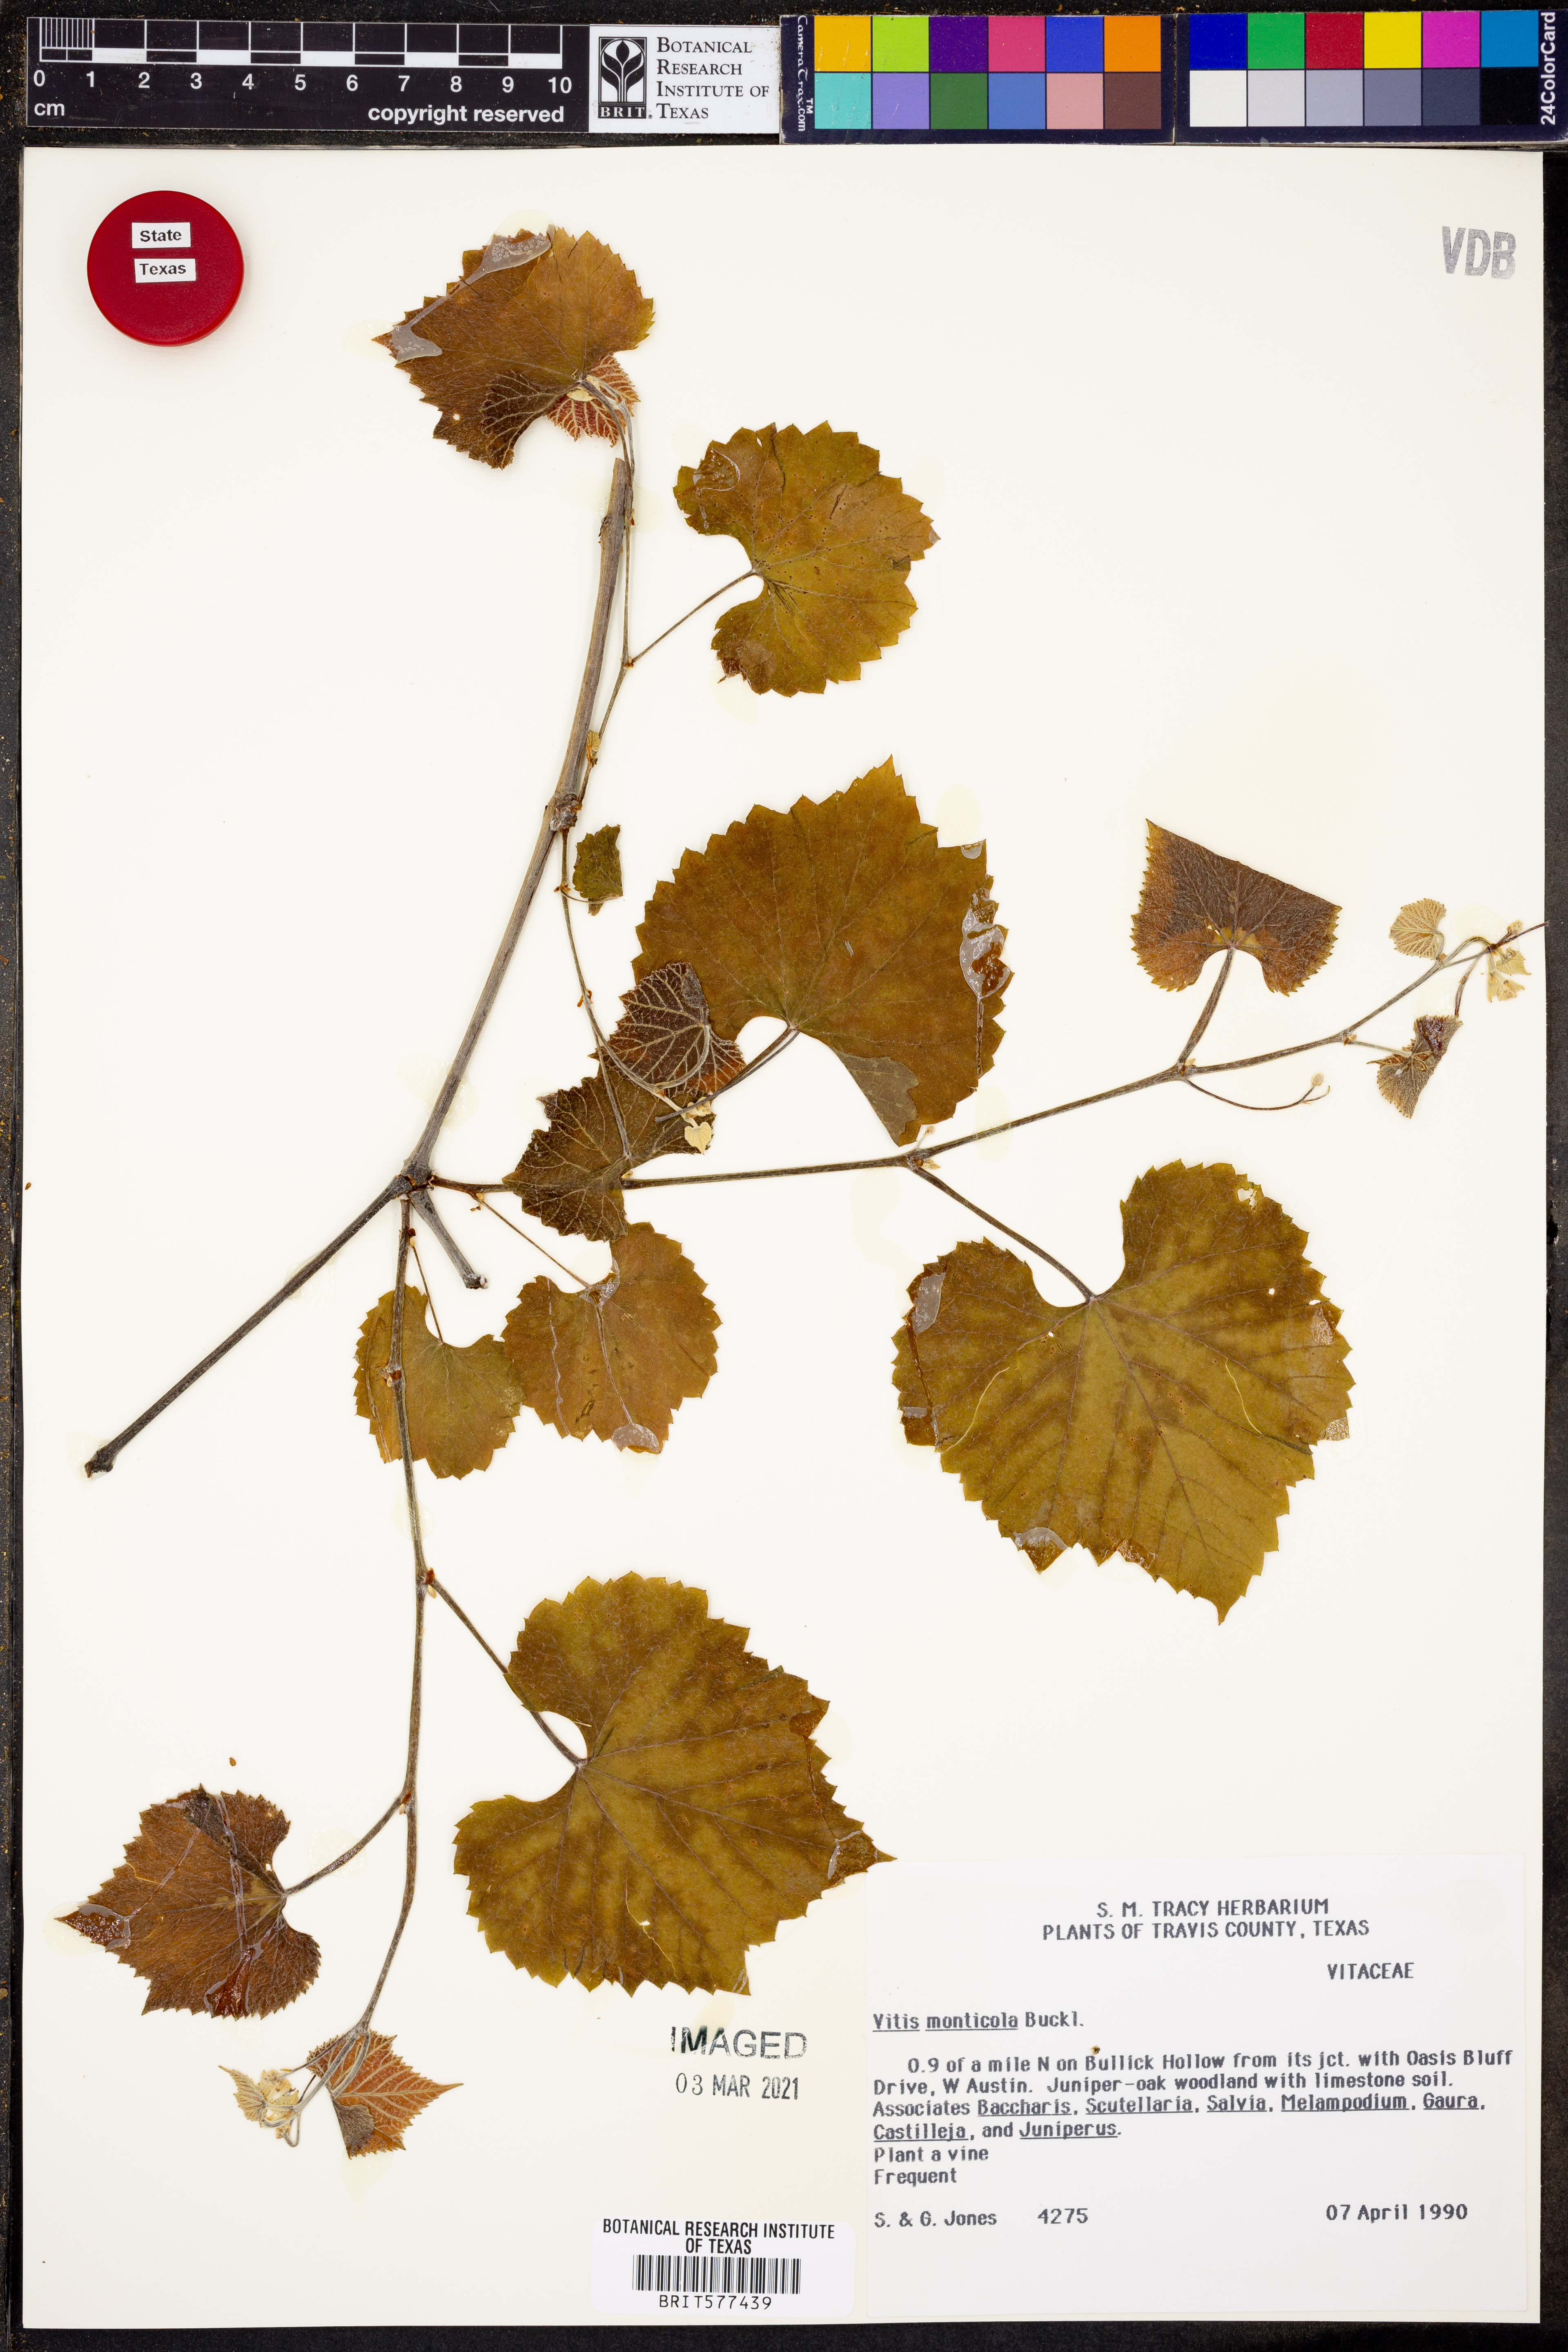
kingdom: Plantae
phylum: Tracheophyta
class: Magnoliopsida
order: Vitales
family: Vitaceae
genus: Vitis
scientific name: Vitis monticola
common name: Mountain grape
